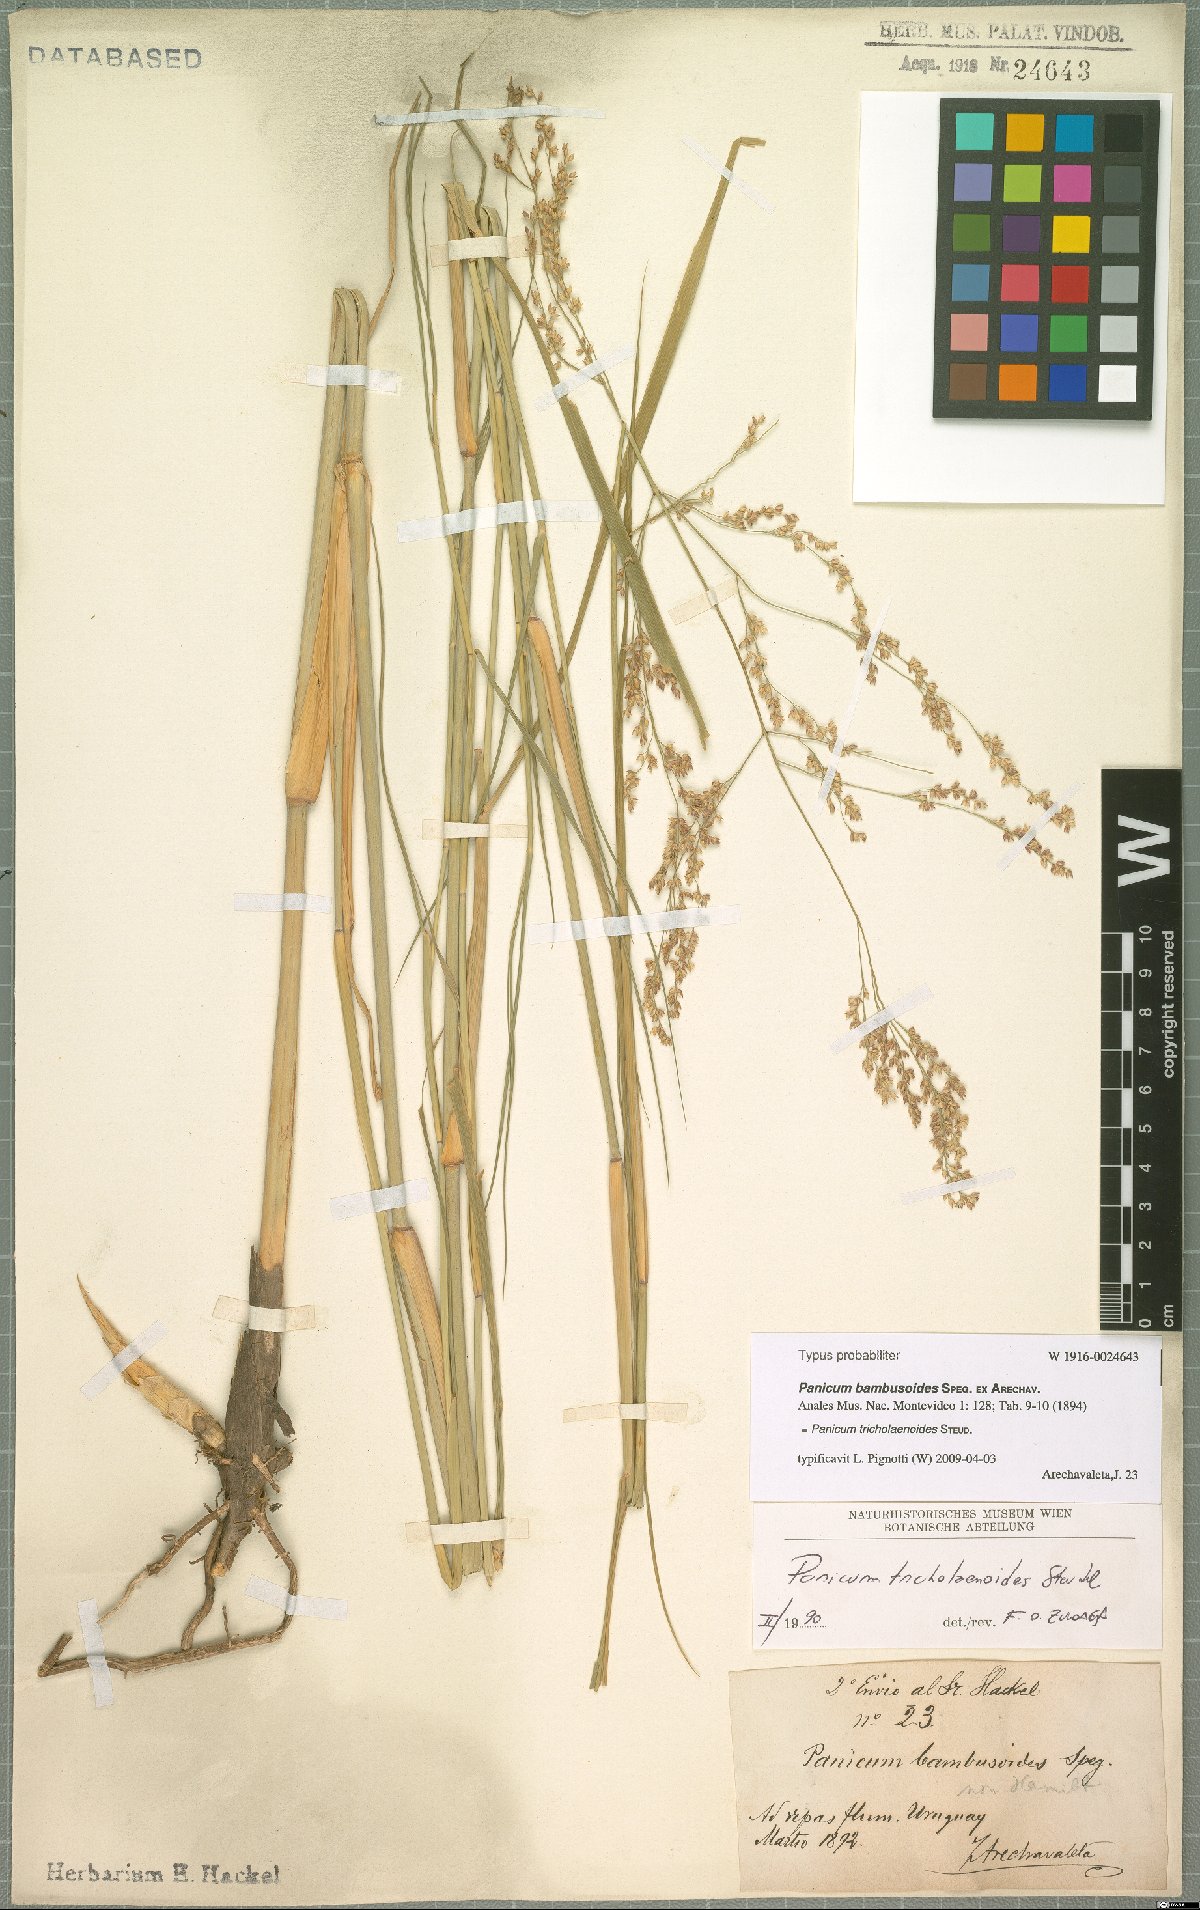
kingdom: Plantae
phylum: Tracheophyta
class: Liliopsida
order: Poales
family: Poaceae
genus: Panicum
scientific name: Panicum tricholaenoides
